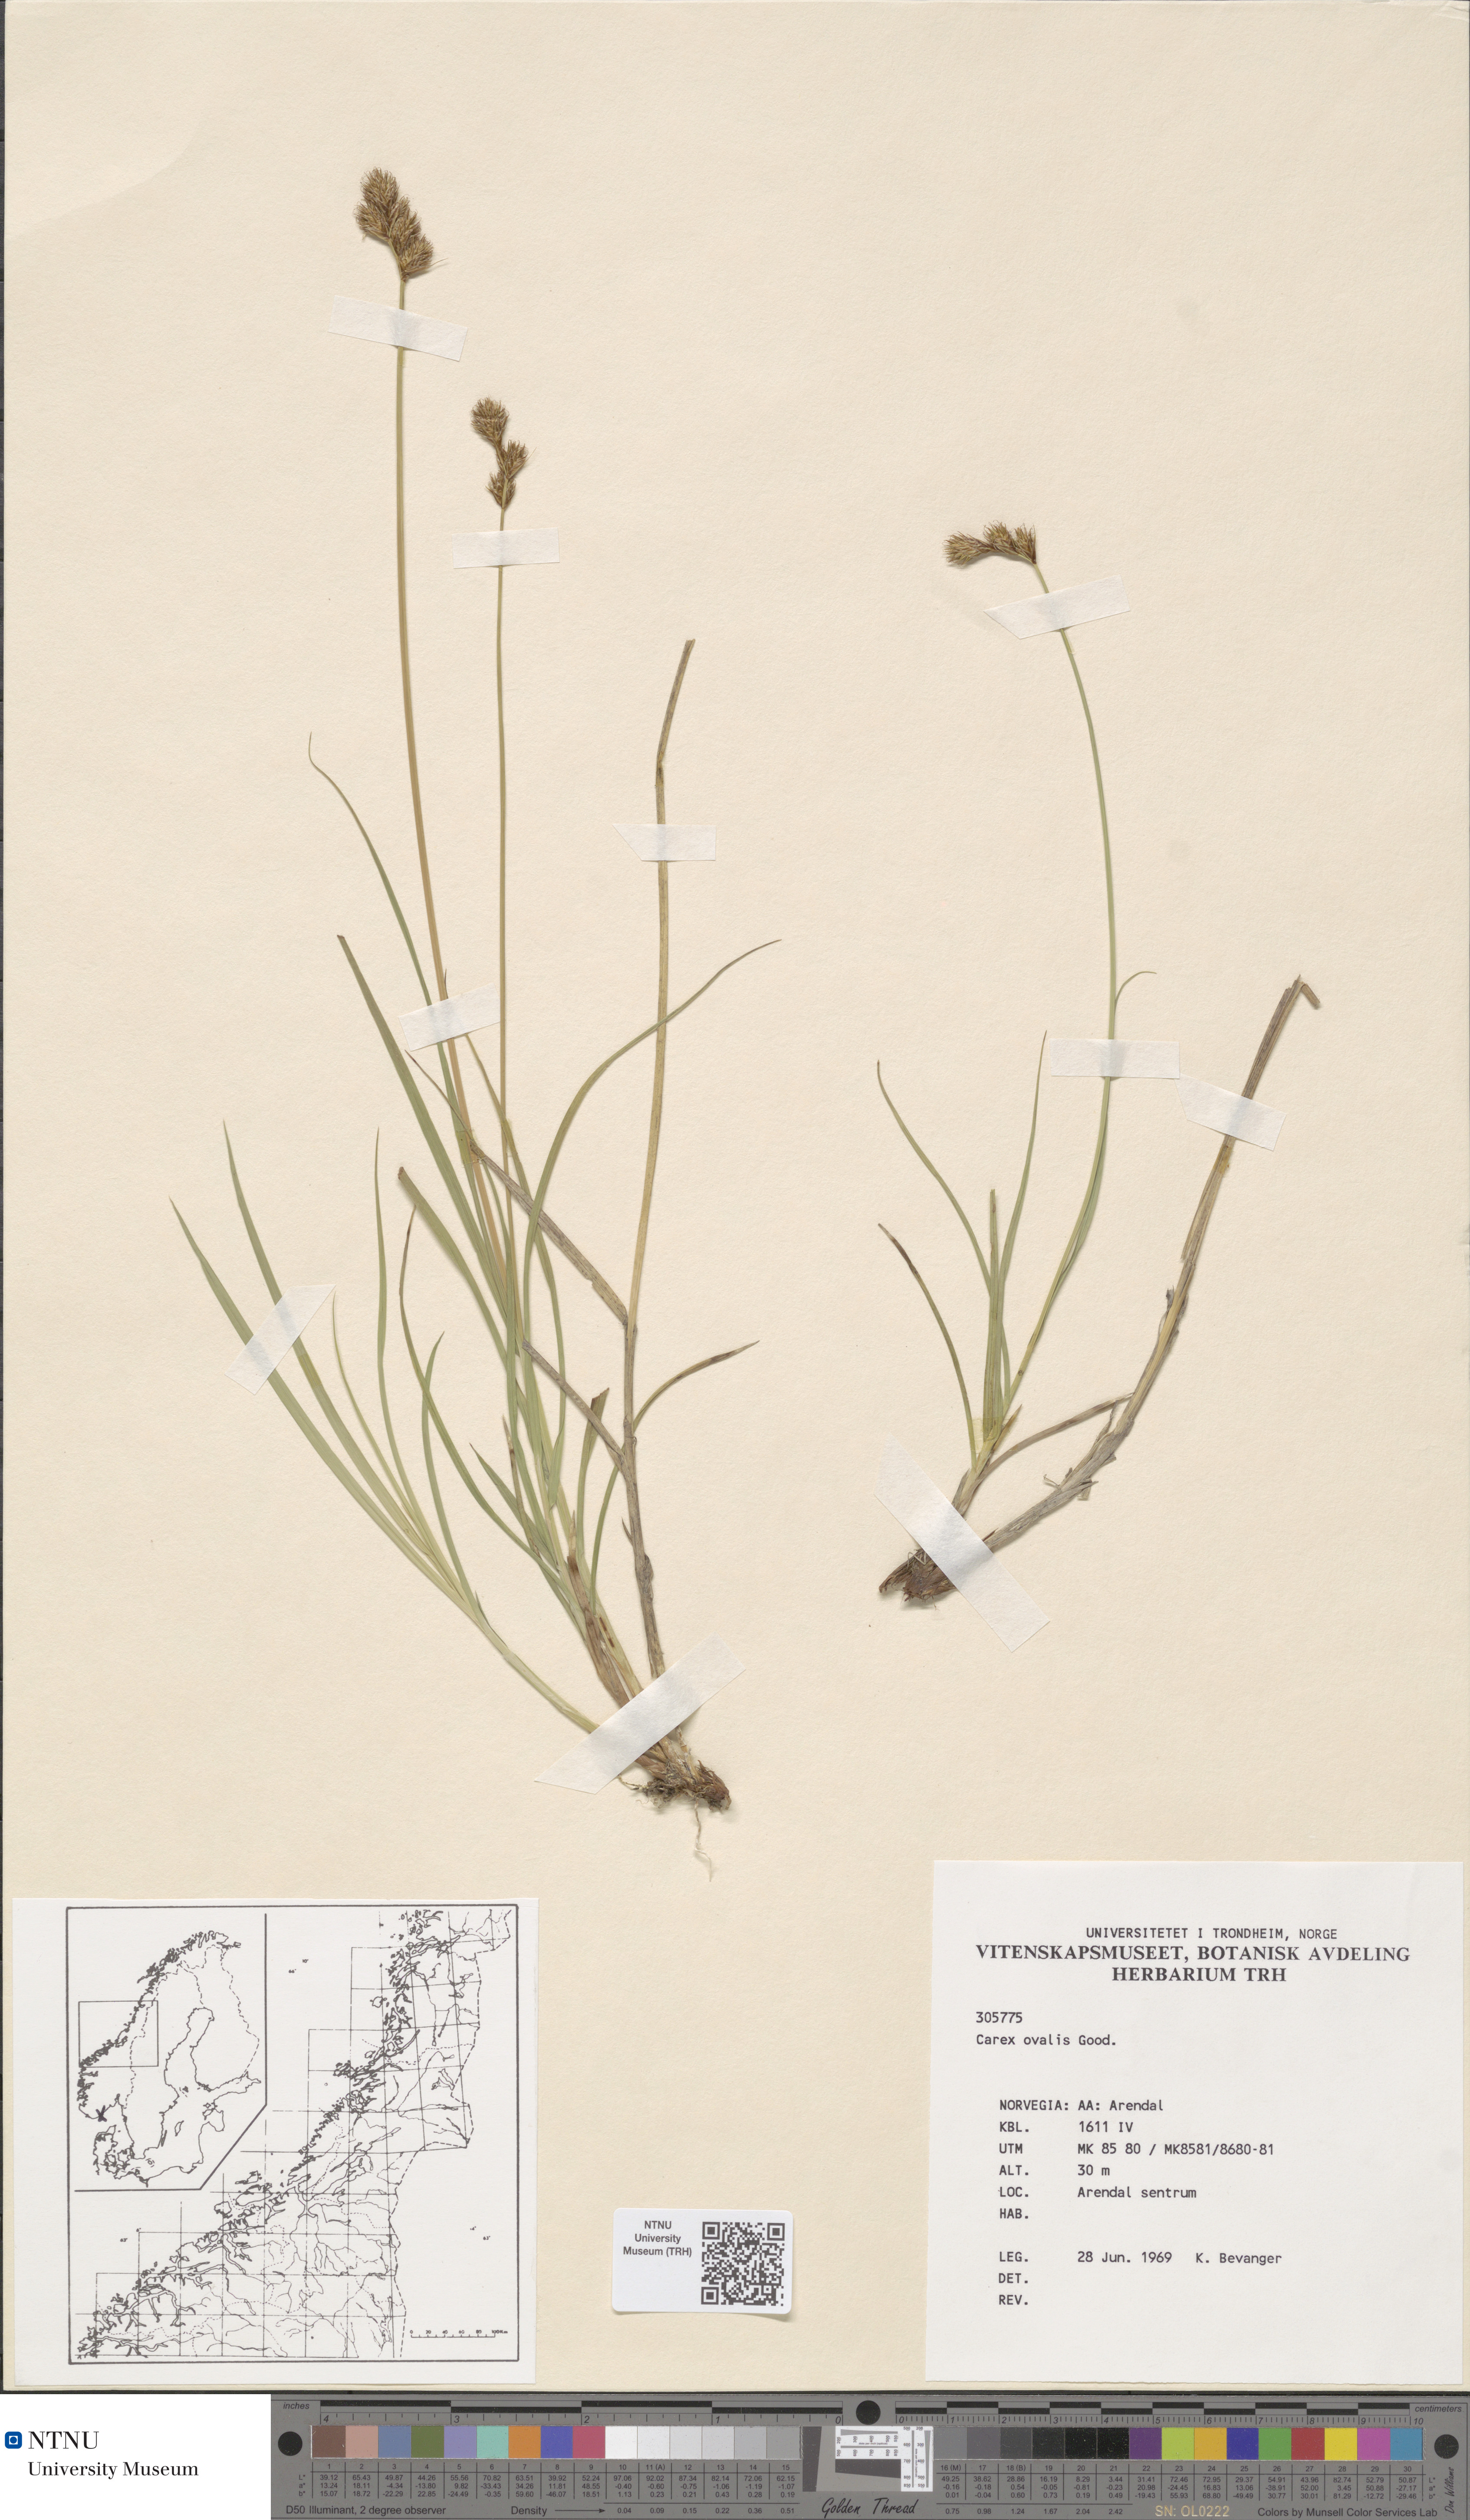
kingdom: Plantae
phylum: Tracheophyta
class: Liliopsida
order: Poales
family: Cyperaceae
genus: Carex
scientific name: Carex leporina
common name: Oval sedge
